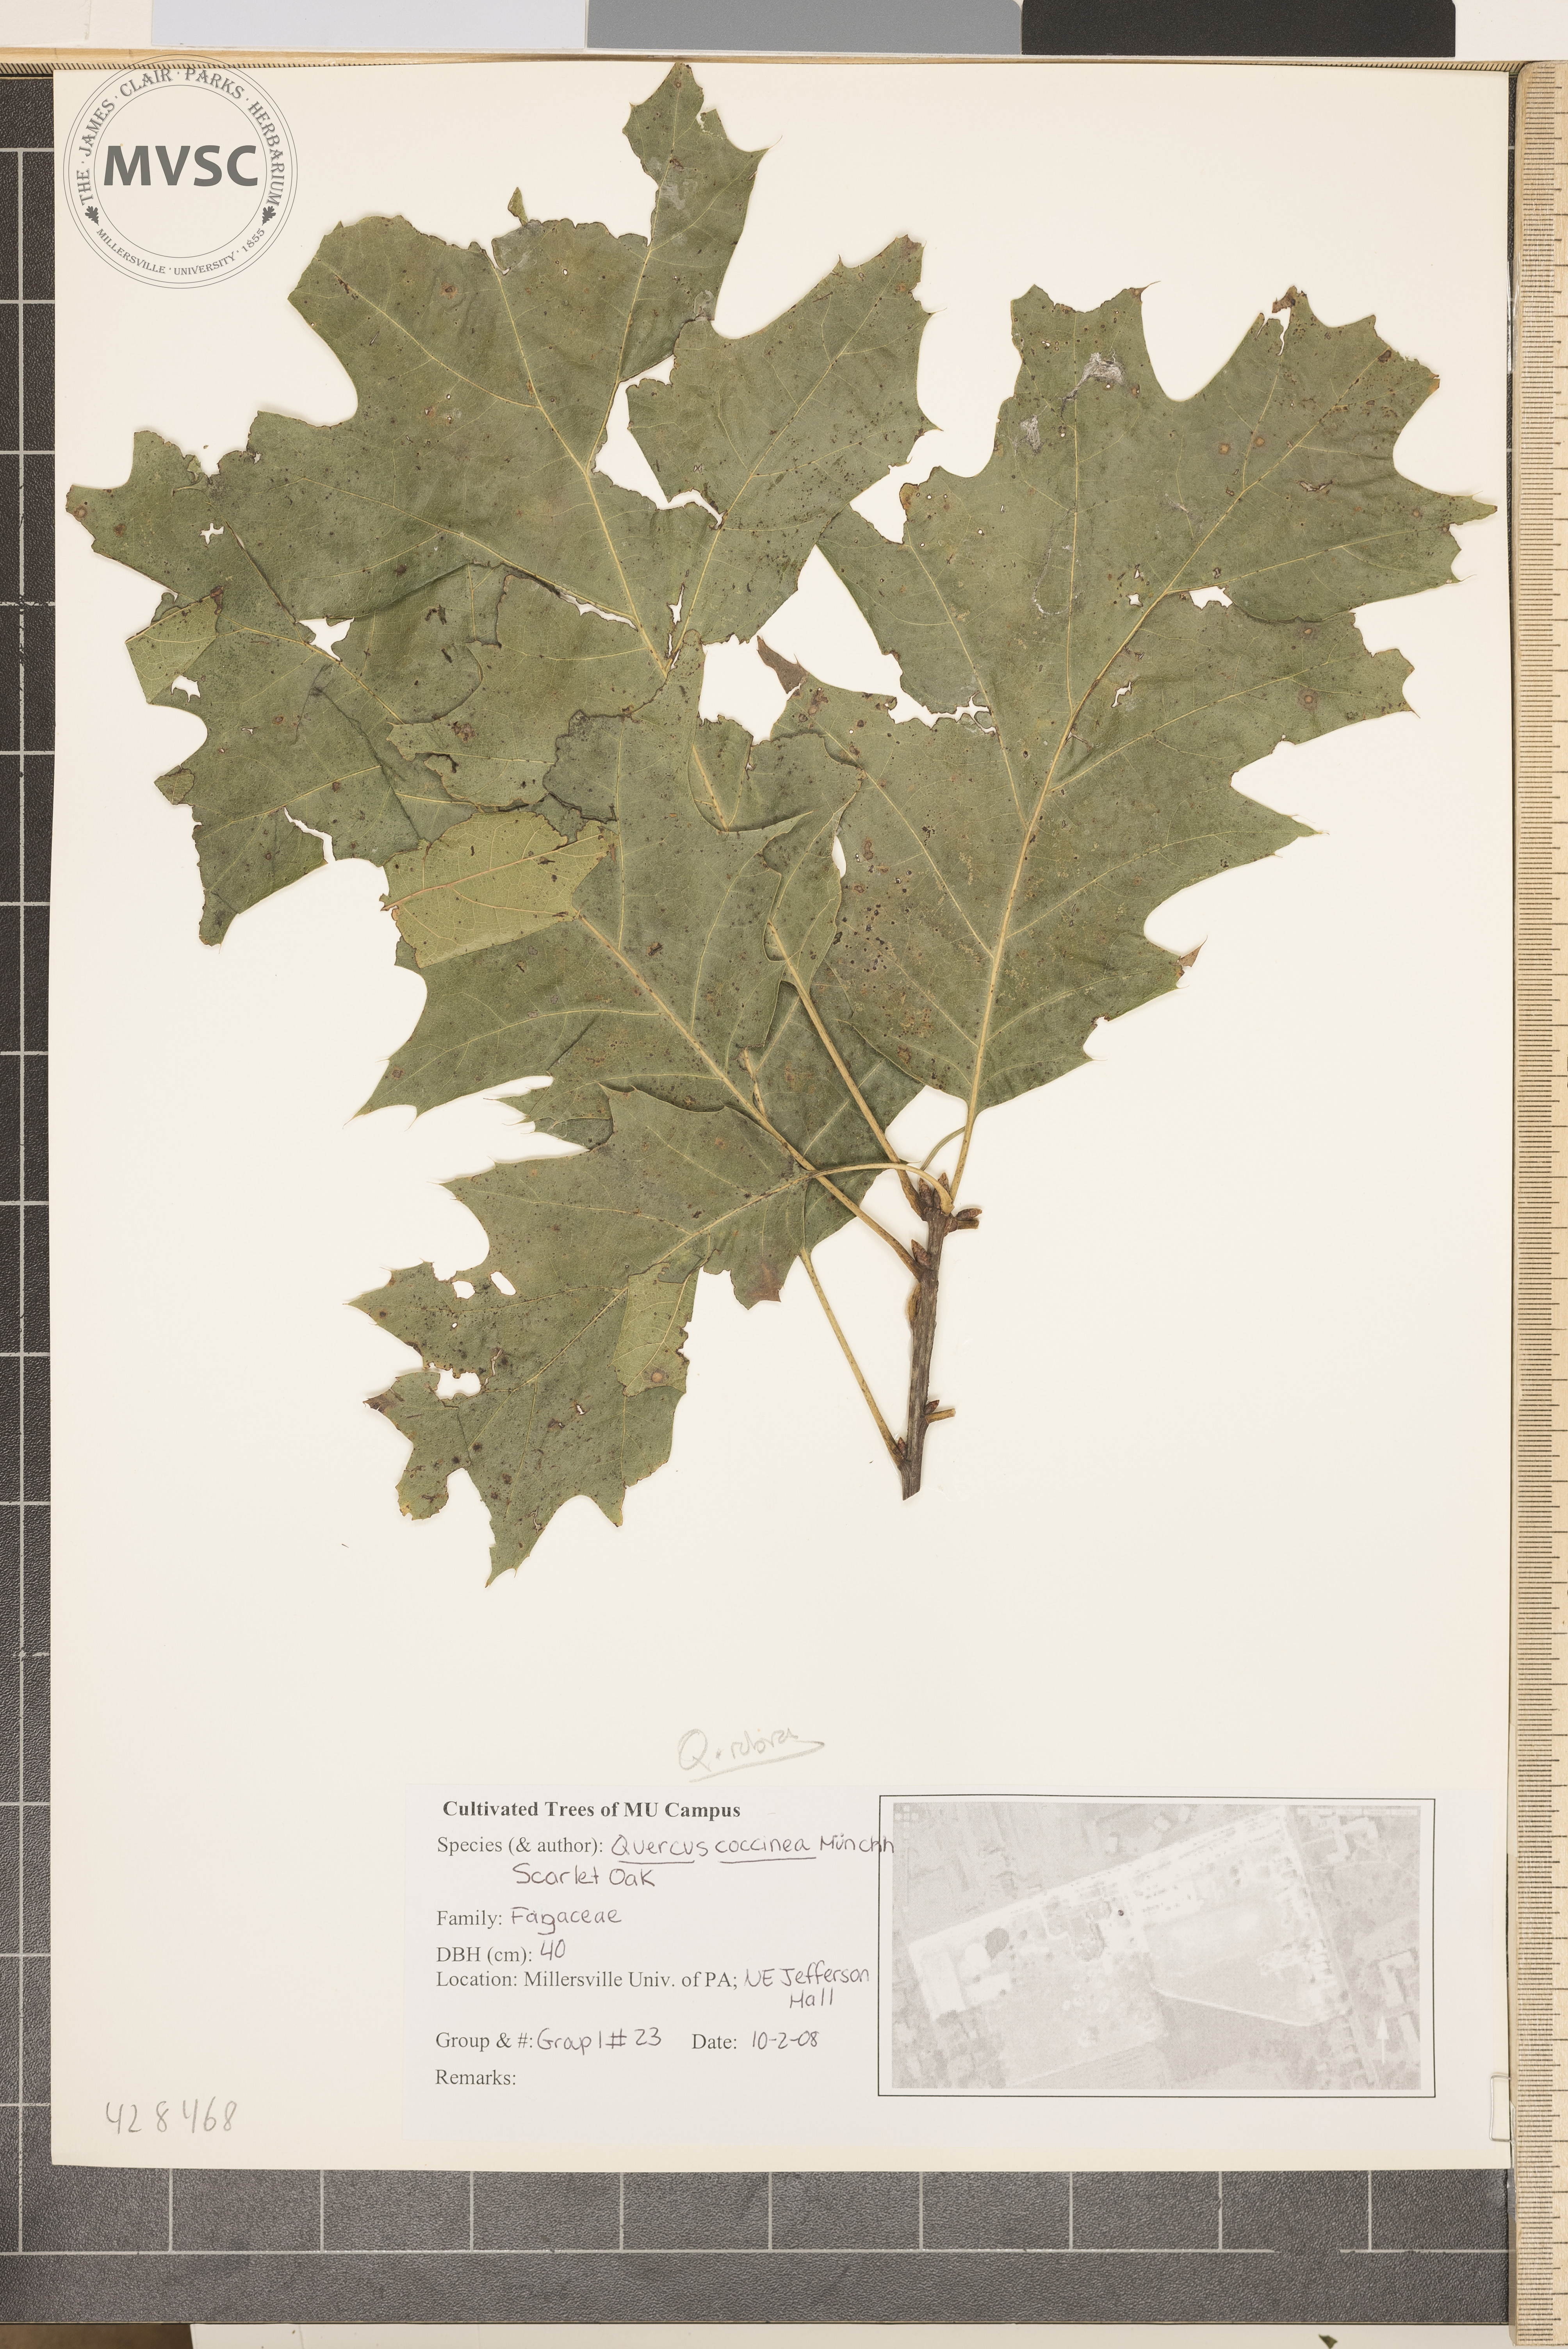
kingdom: Plantae
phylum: Tracheophyta
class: Magnoliopsida
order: Fagales
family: Fagaceae
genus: Quercus
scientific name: Quercus rubra
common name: Red oak
